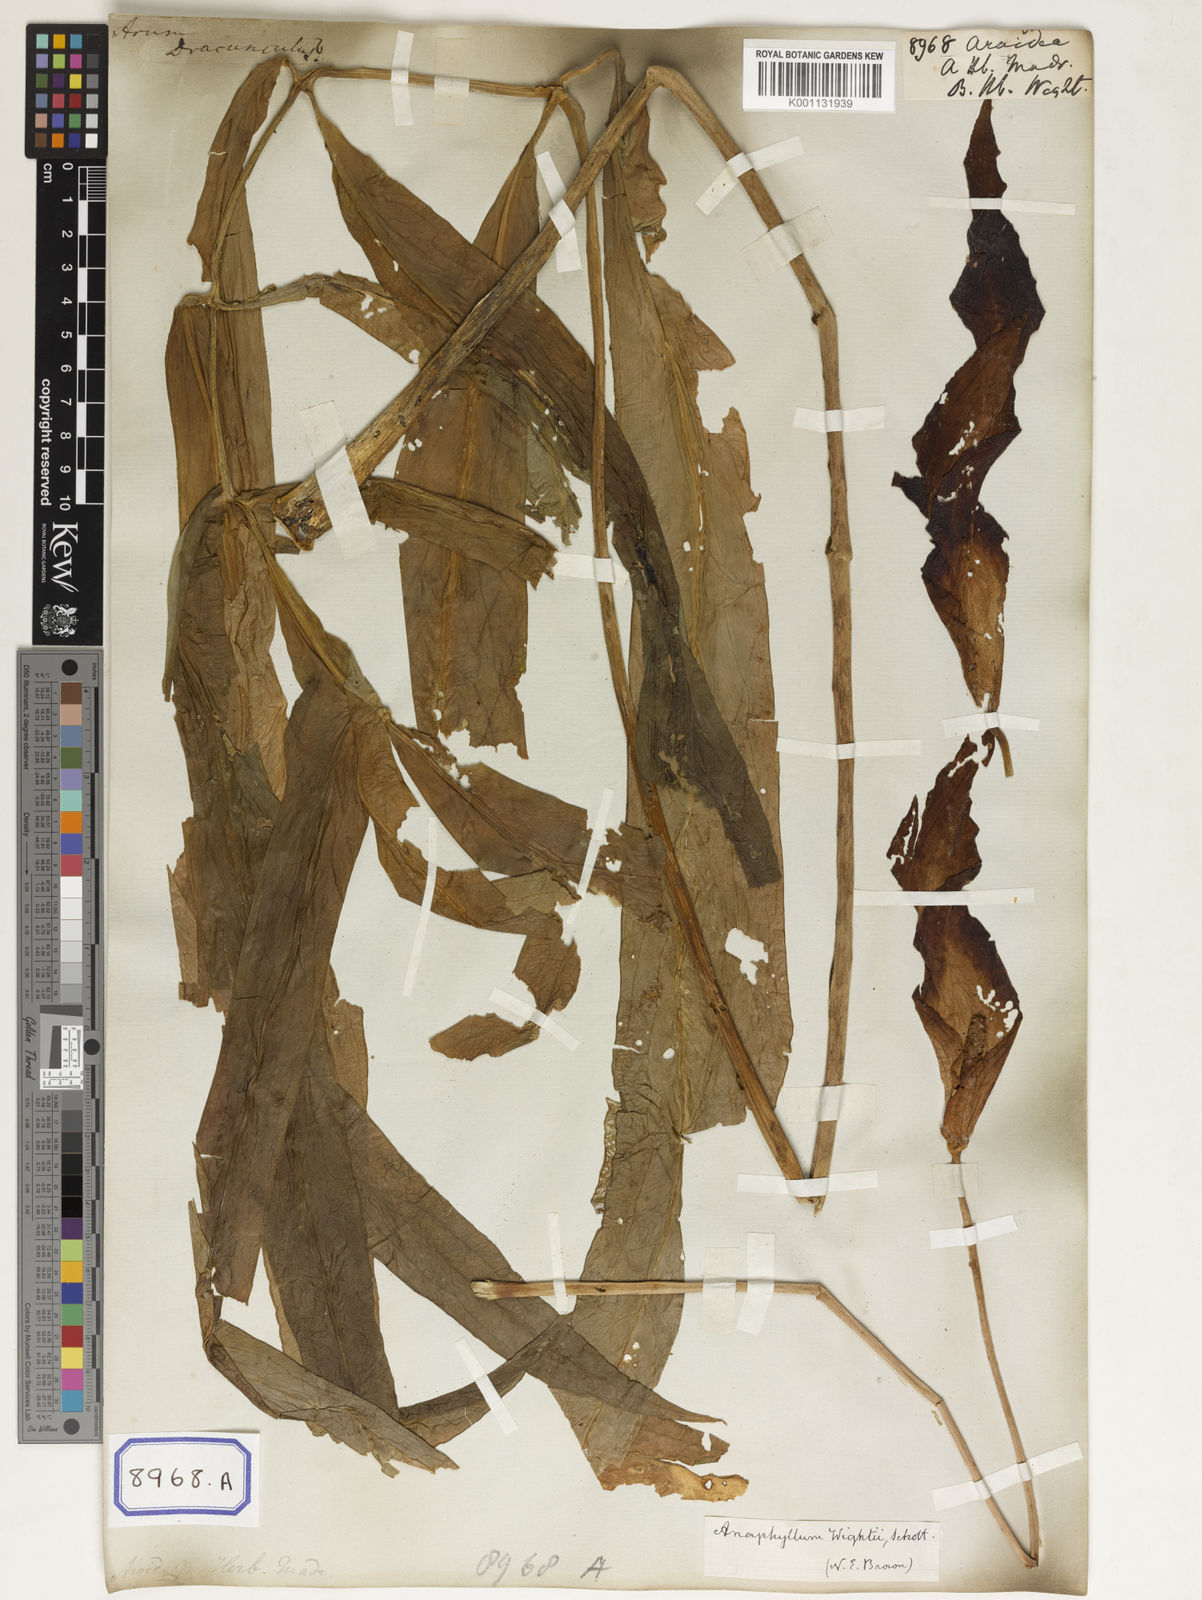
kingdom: Plantae
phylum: Tracheophyta
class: Liliopsida
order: Alismatales
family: Araceae
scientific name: Araceae
